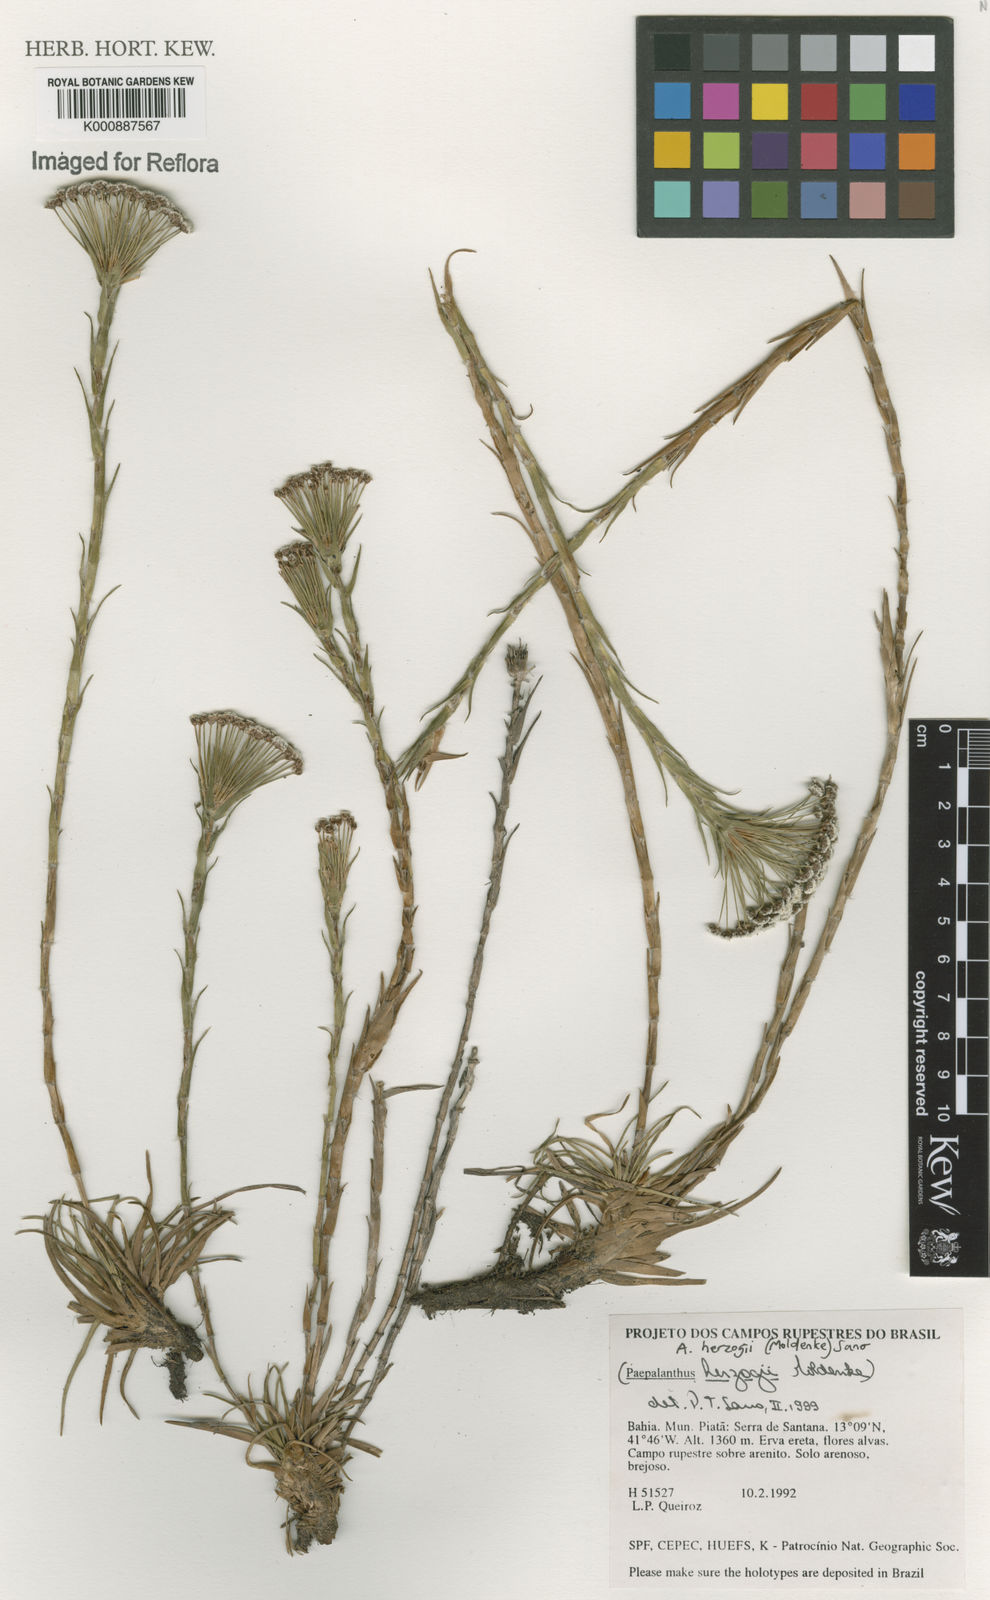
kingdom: Plantae
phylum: Tracheophyta
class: Liliopsida
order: Poales
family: Eriocaulaceae
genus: Paepalanthus
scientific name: Paepalanthus herzogii
